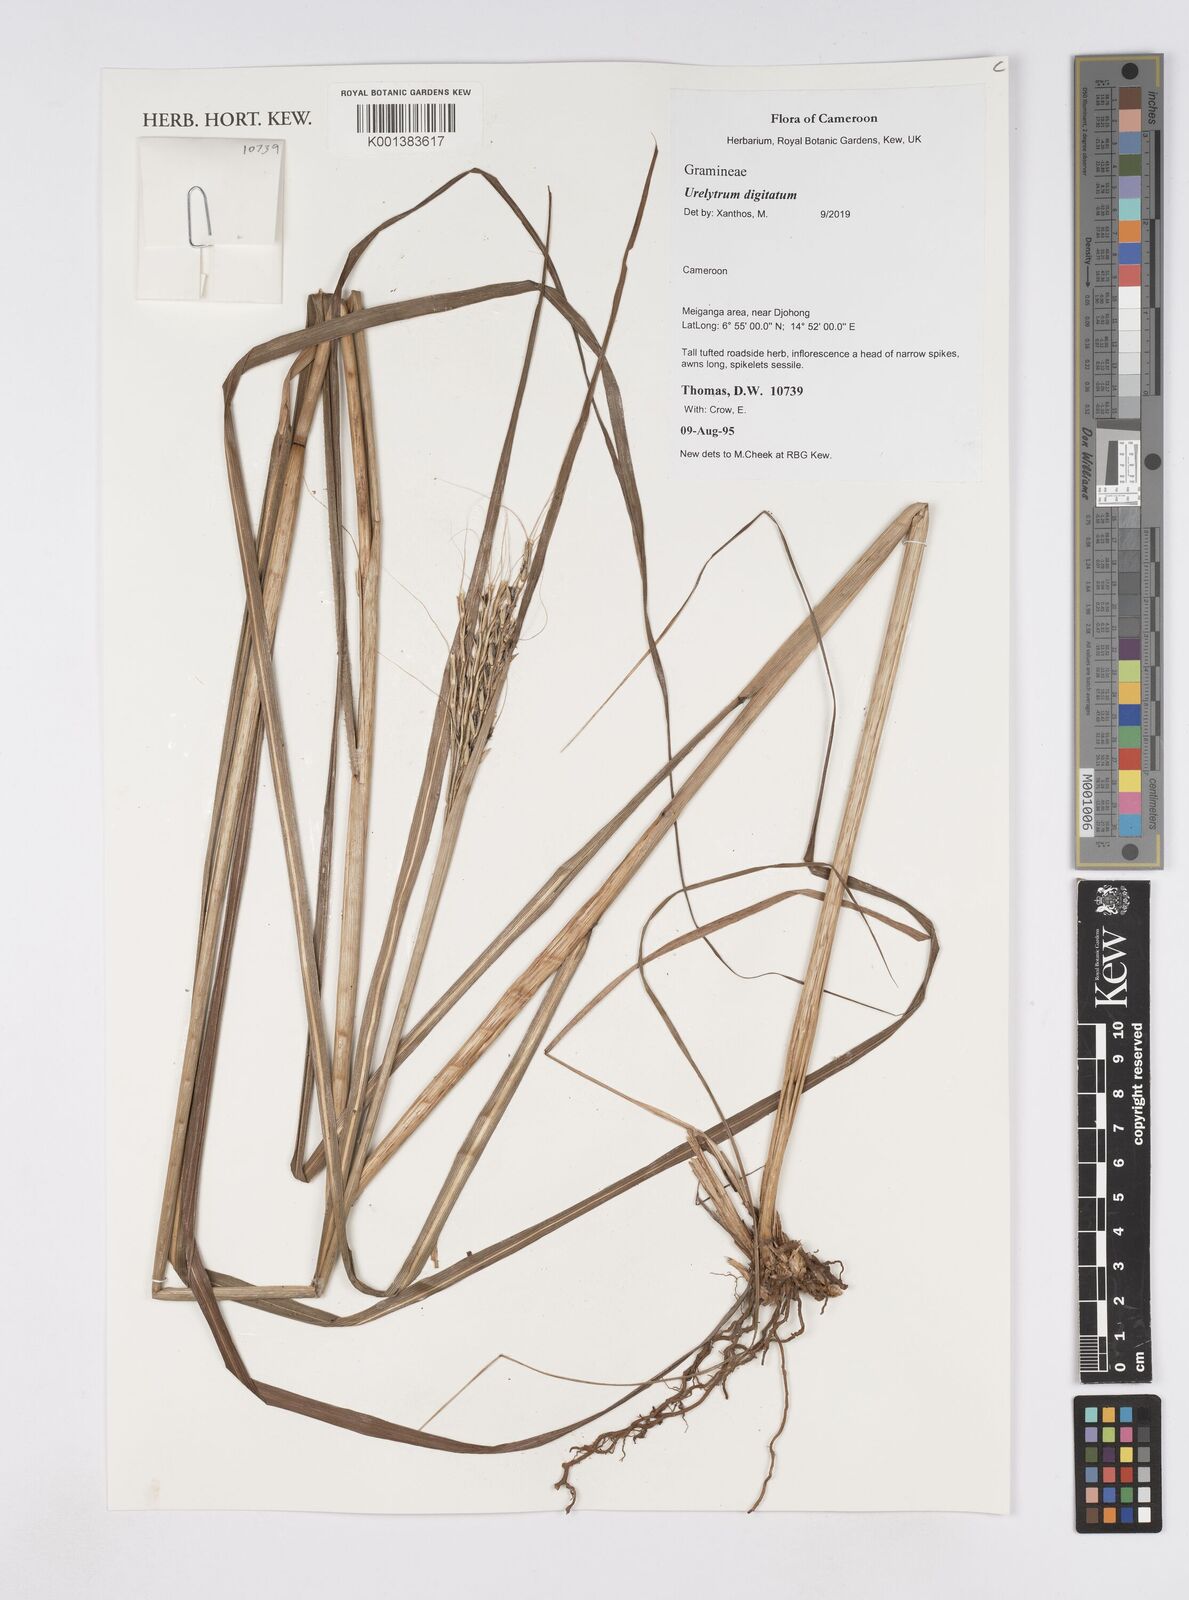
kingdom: Plantae
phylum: Tracheophyta
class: Liliopsida
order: Poales
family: Poaceae
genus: Urelytrum
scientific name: Urelytrum digitatum
